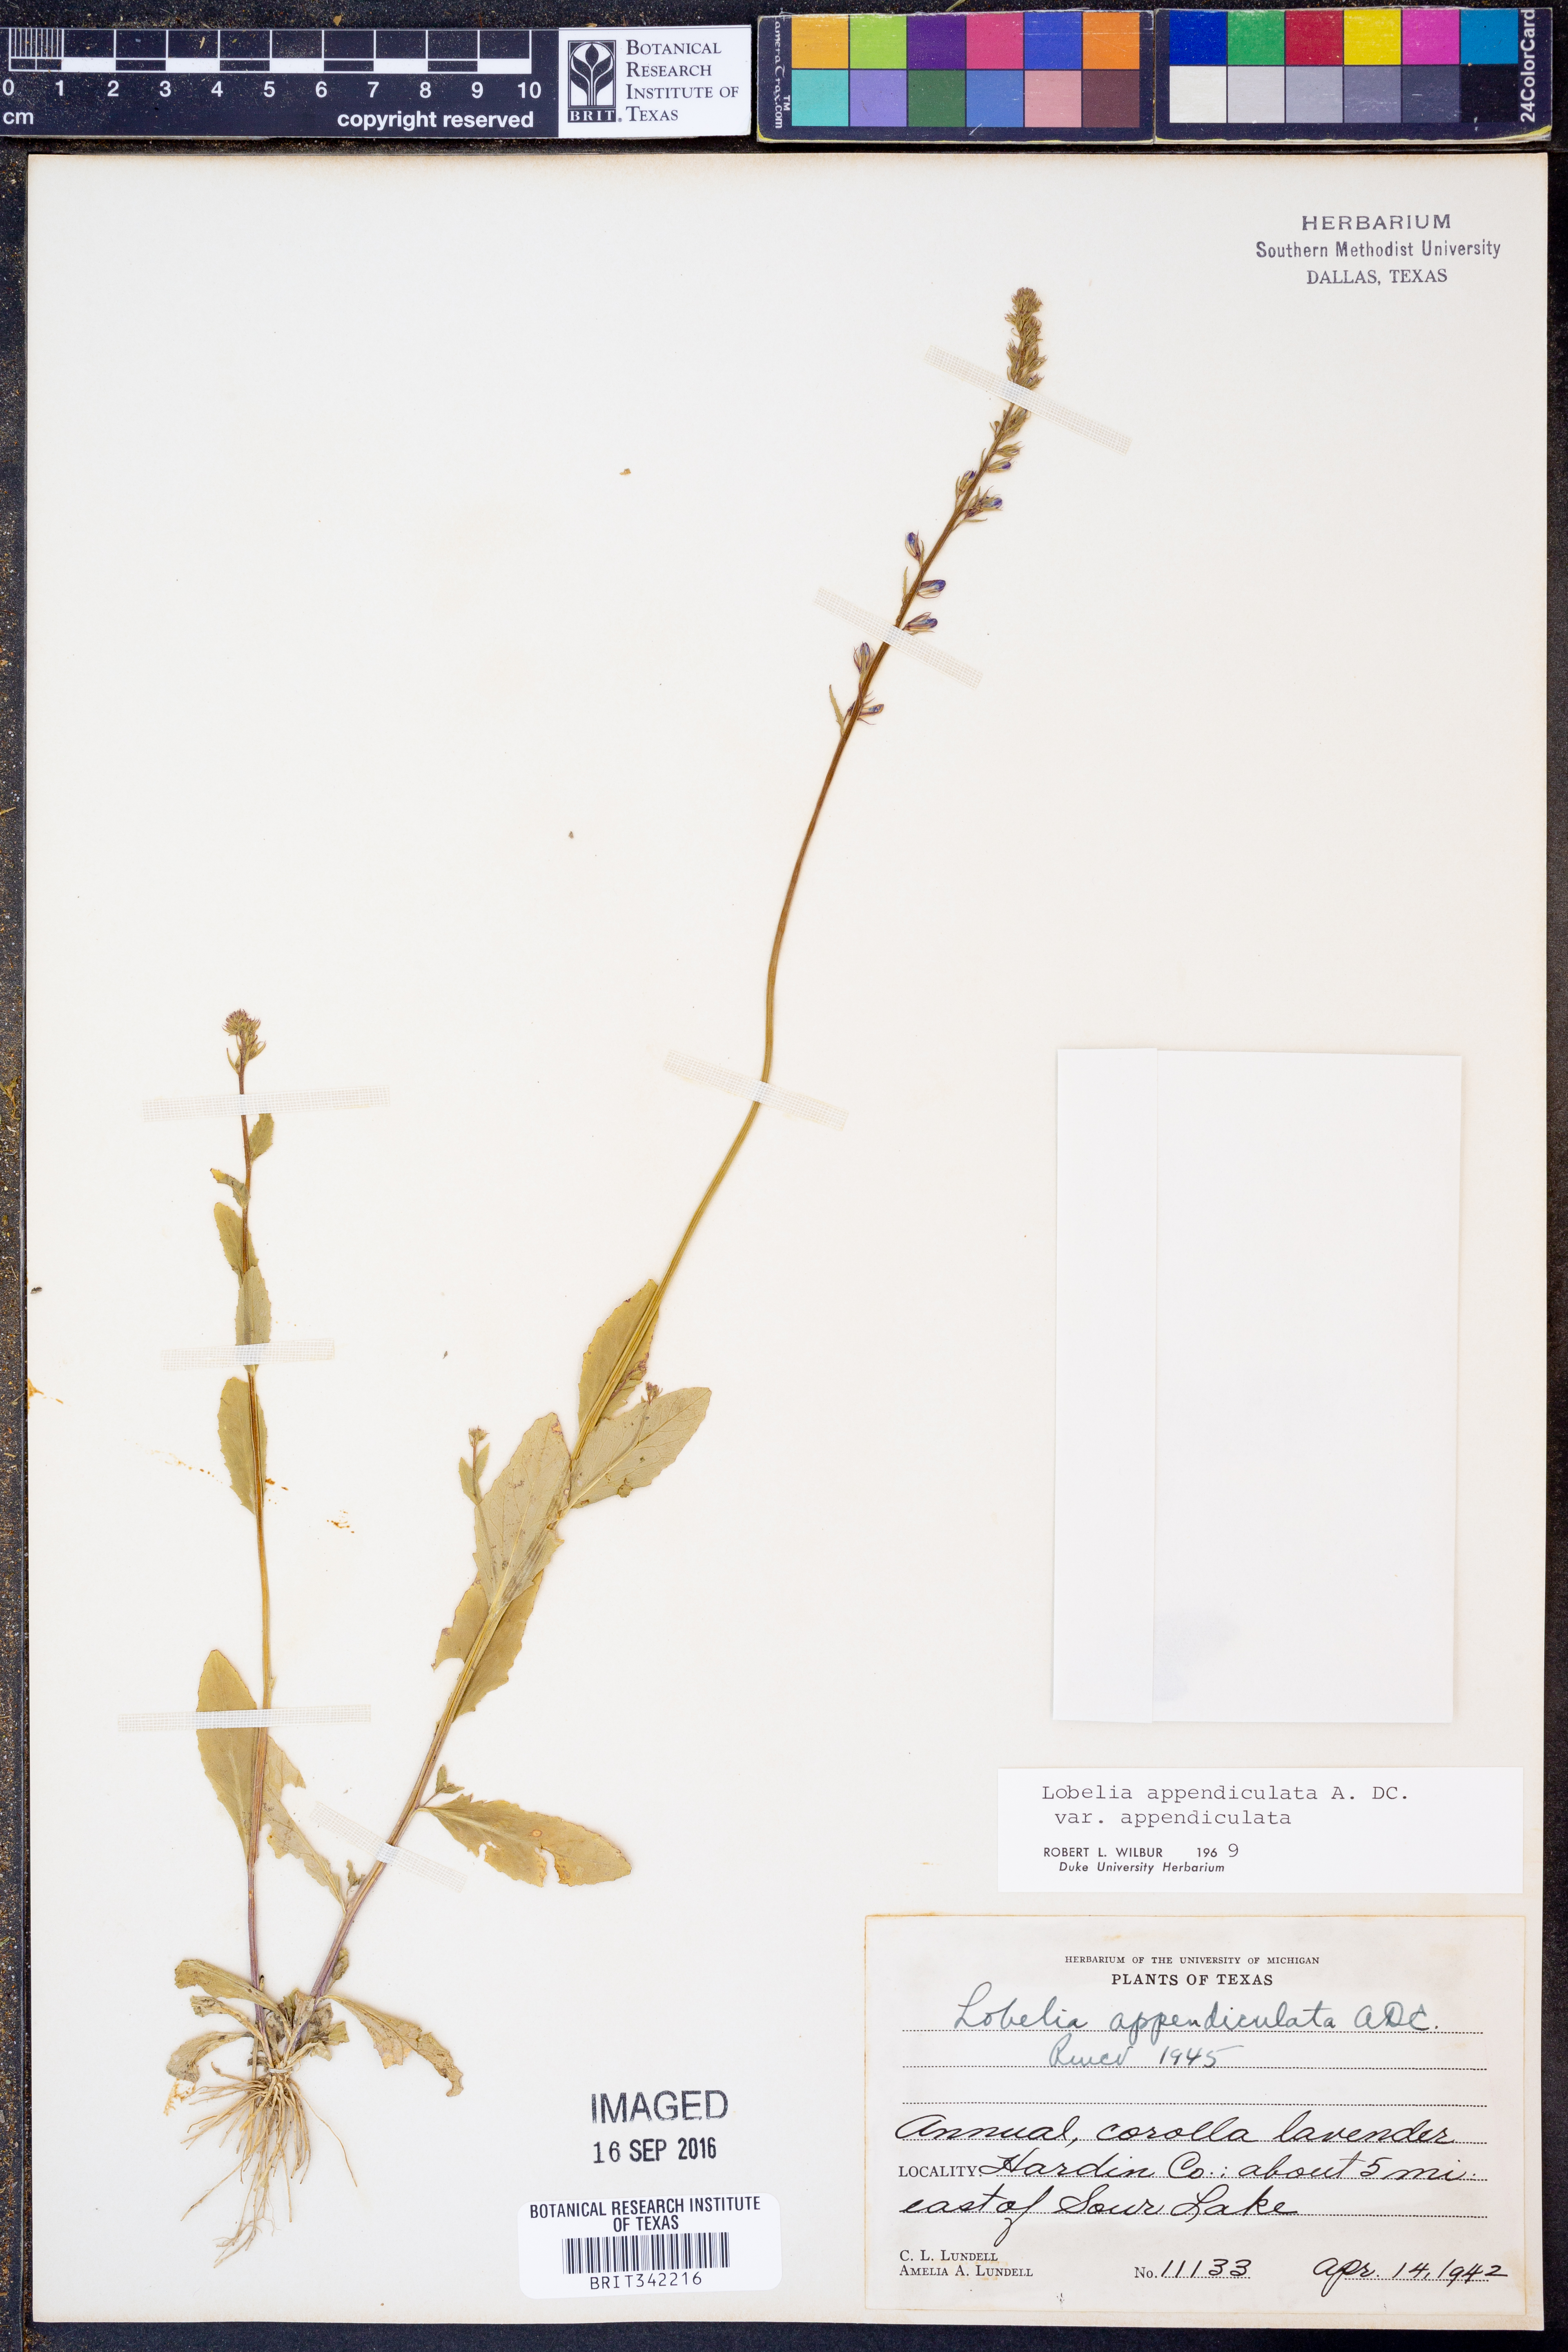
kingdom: Plantae
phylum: Tracheophyta
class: Magnoliopsida
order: Asterales
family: Campanulaceae
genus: Lobelia
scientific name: Lobelia appendiculata
